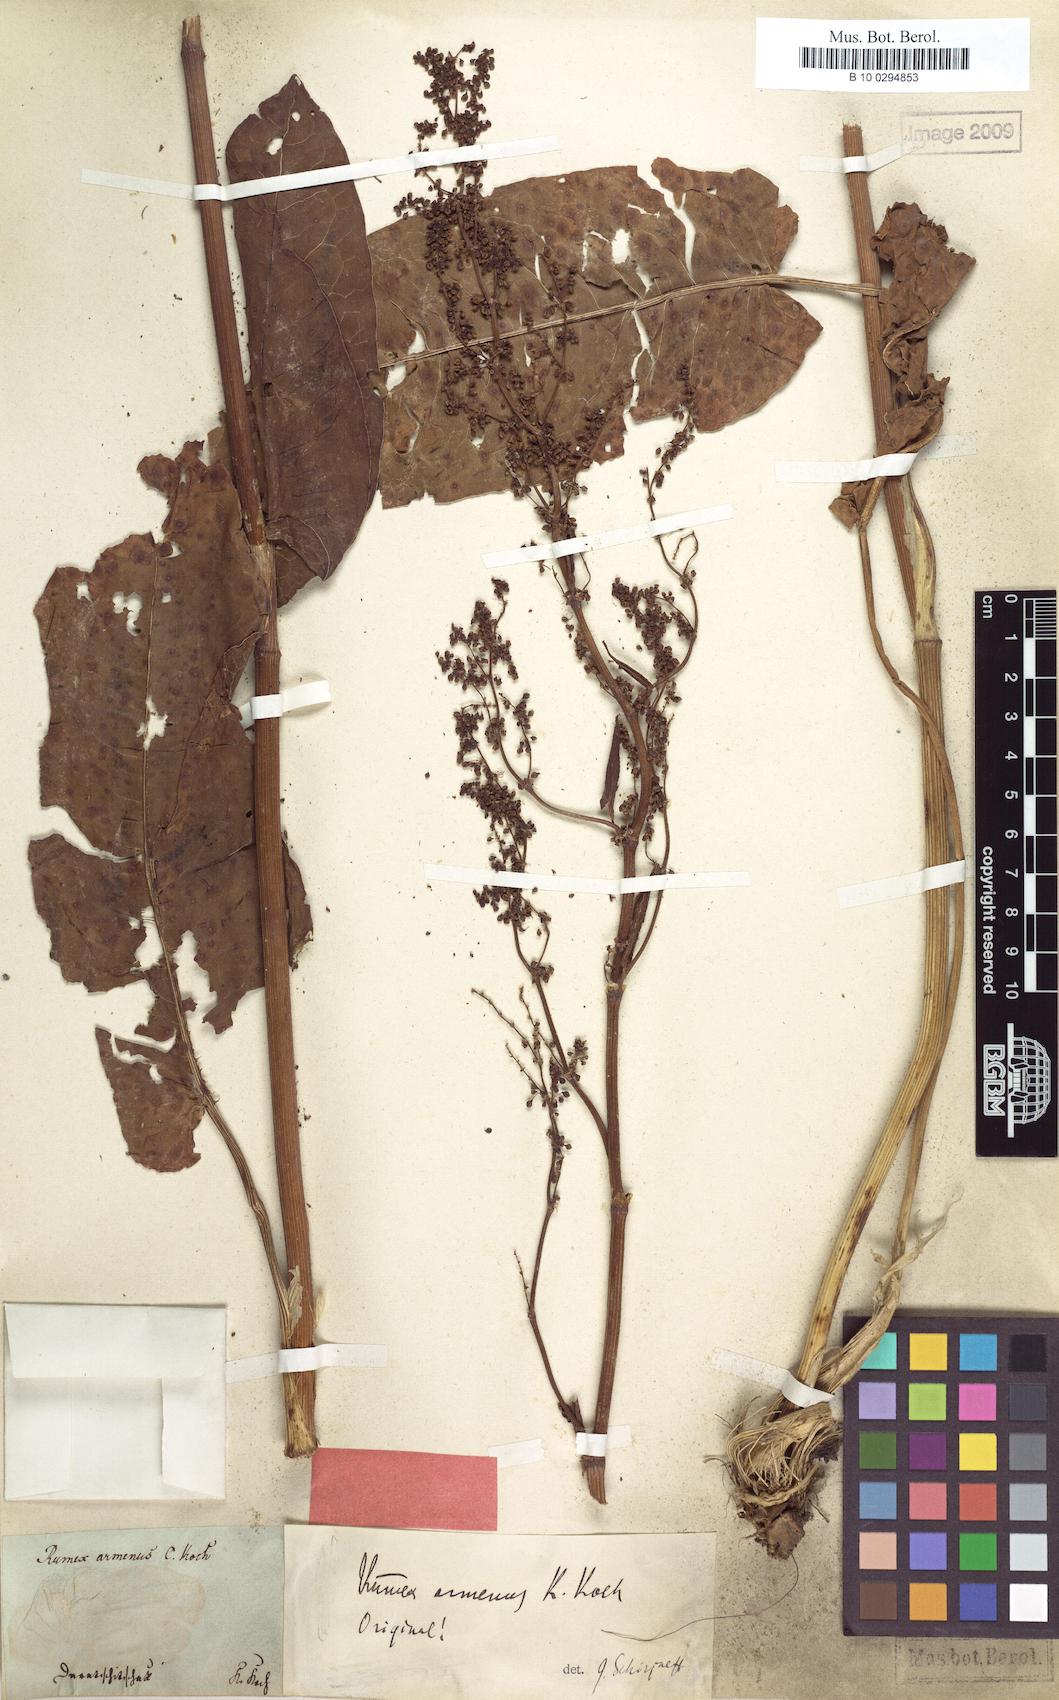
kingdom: Plantae
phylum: Tracheophyta
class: Magnoliopsida
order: Caryophyllales
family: Polygonaceae
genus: Rumex
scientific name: Rumex armenus
